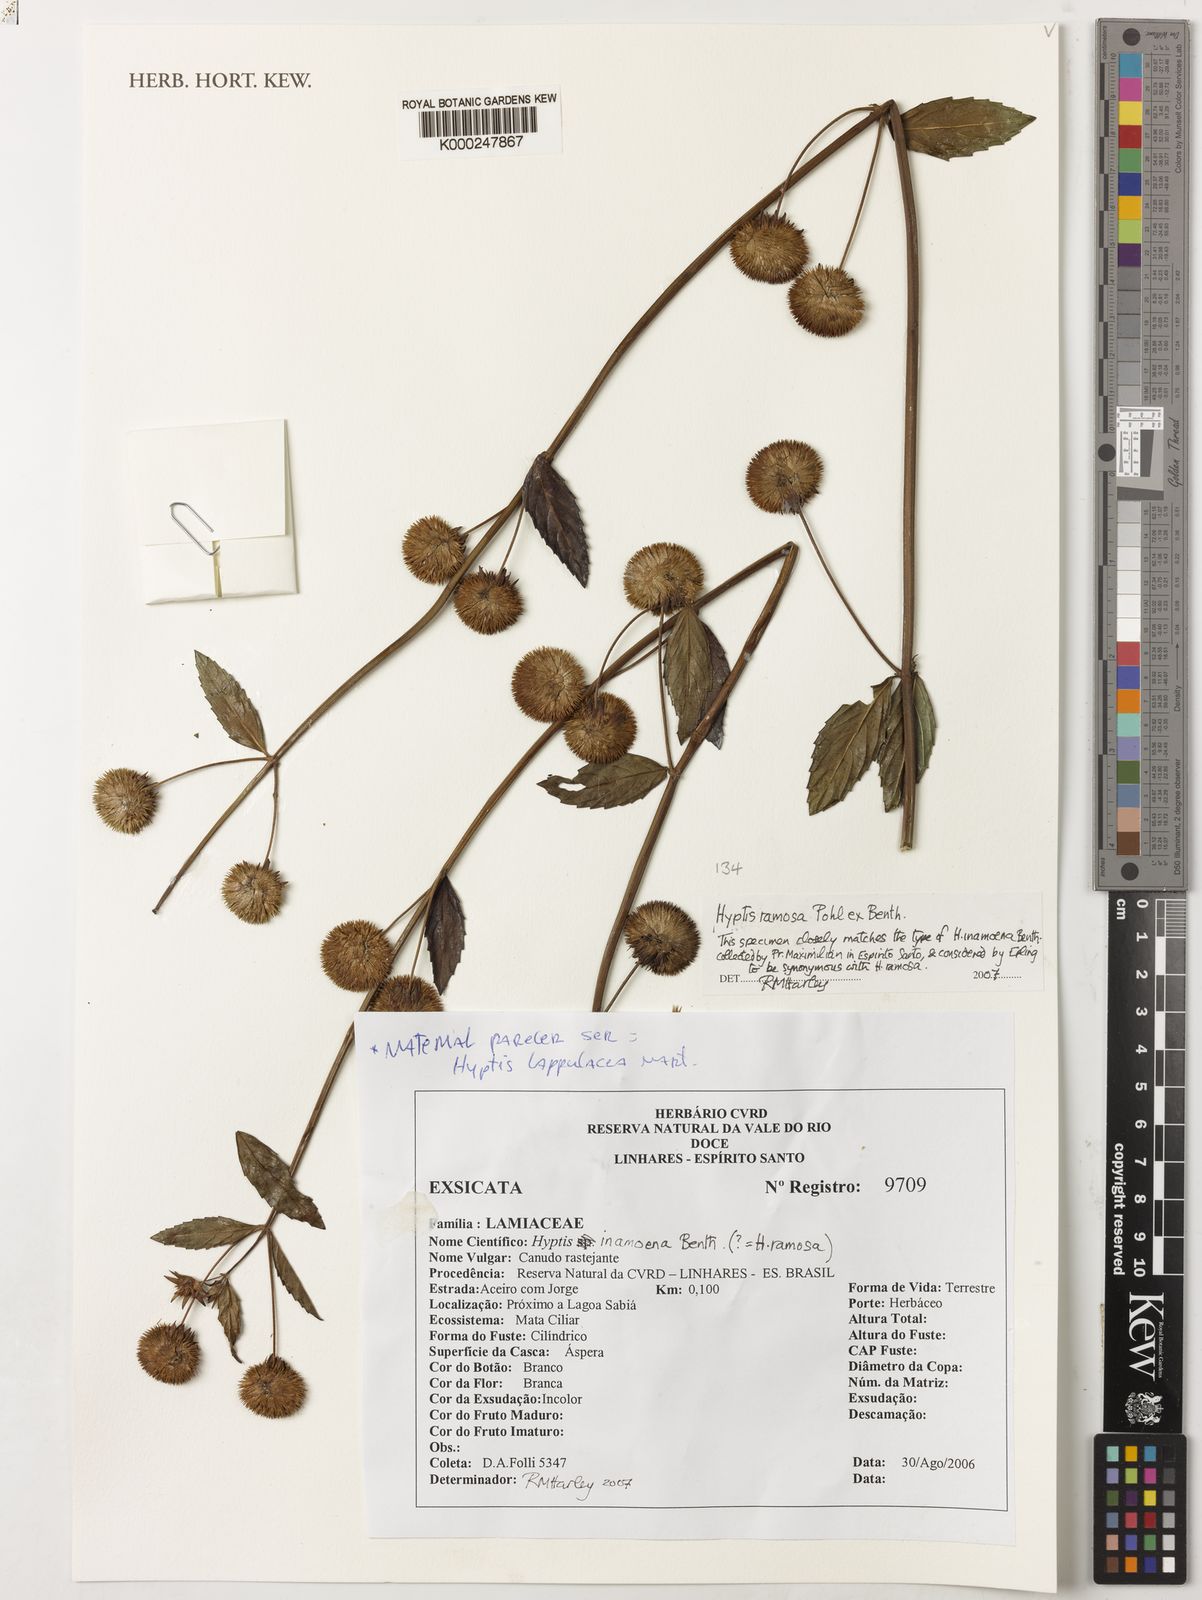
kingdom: Plantae
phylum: Tracheophyta
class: Magnoliopsida
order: Lamiales
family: Lamiaceae
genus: Hyptis
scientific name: Hyptis ramosa
